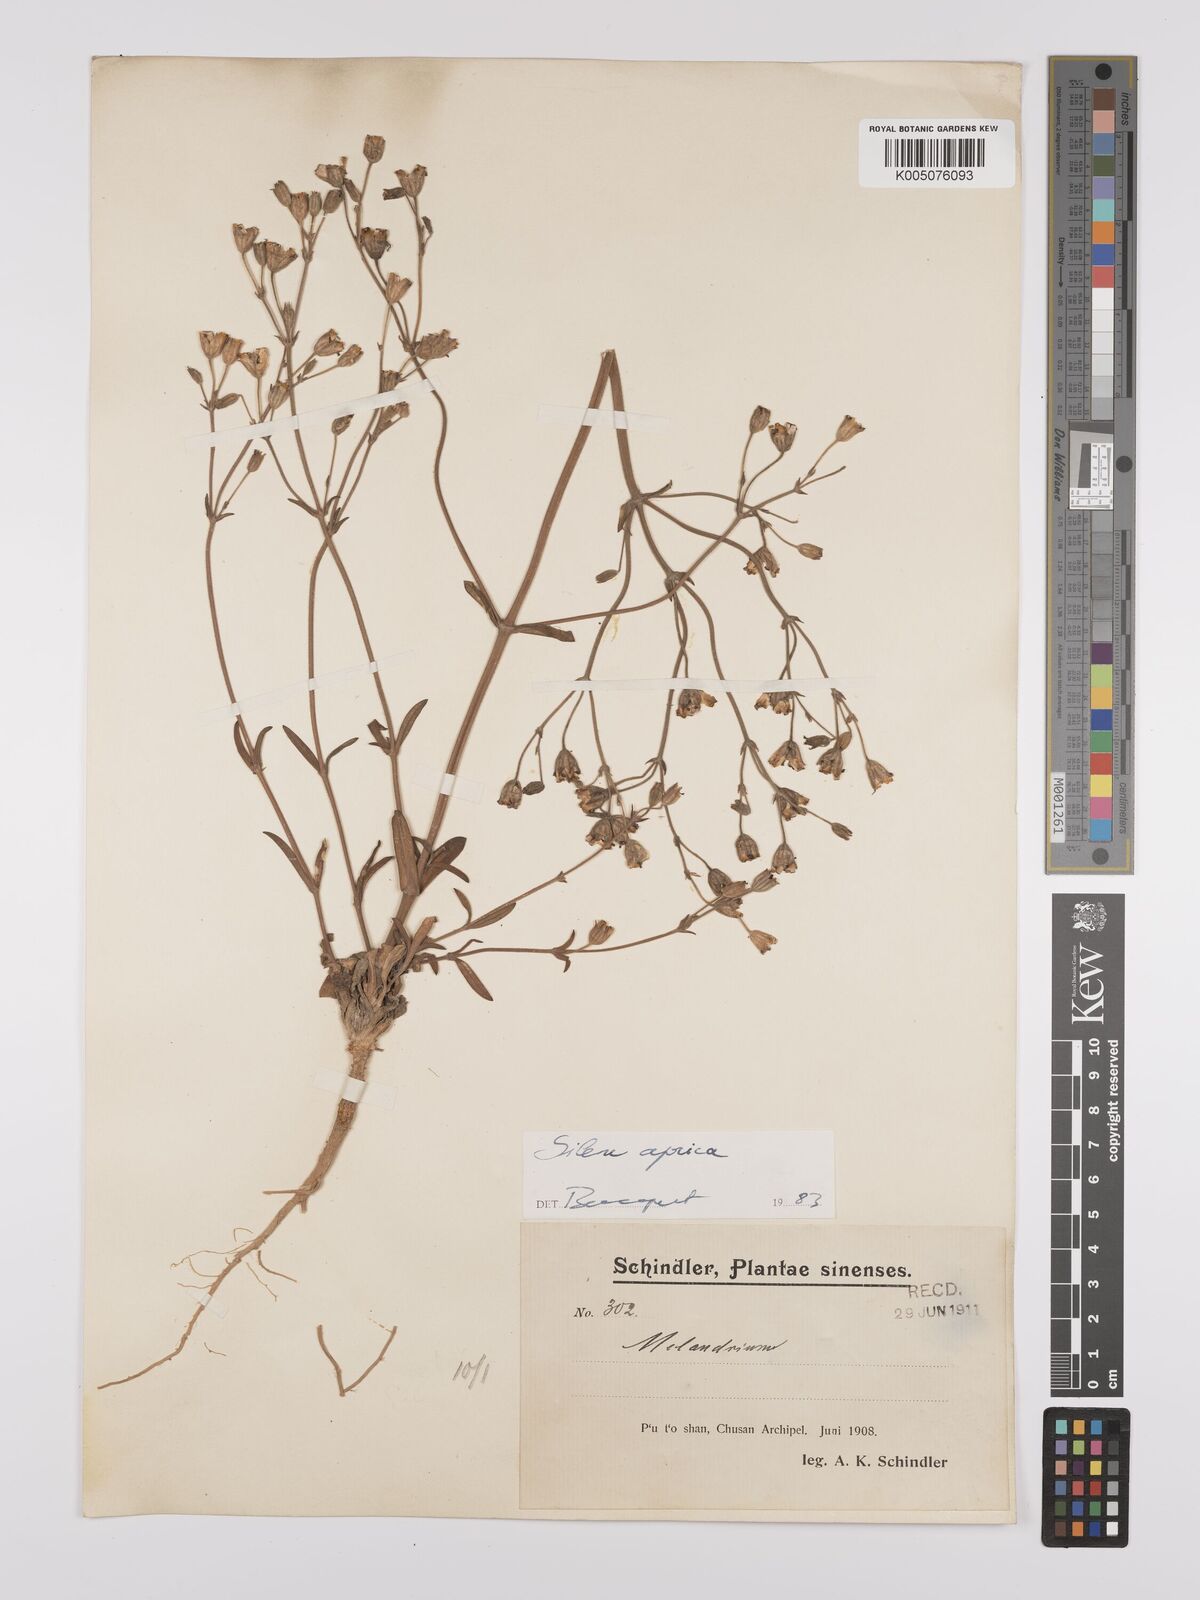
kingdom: Plantae
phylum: Tracheophyta
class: Magnoliopsida
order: Caryophyllales
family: Caryophyllaceae
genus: Silene
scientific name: Silene aprica
